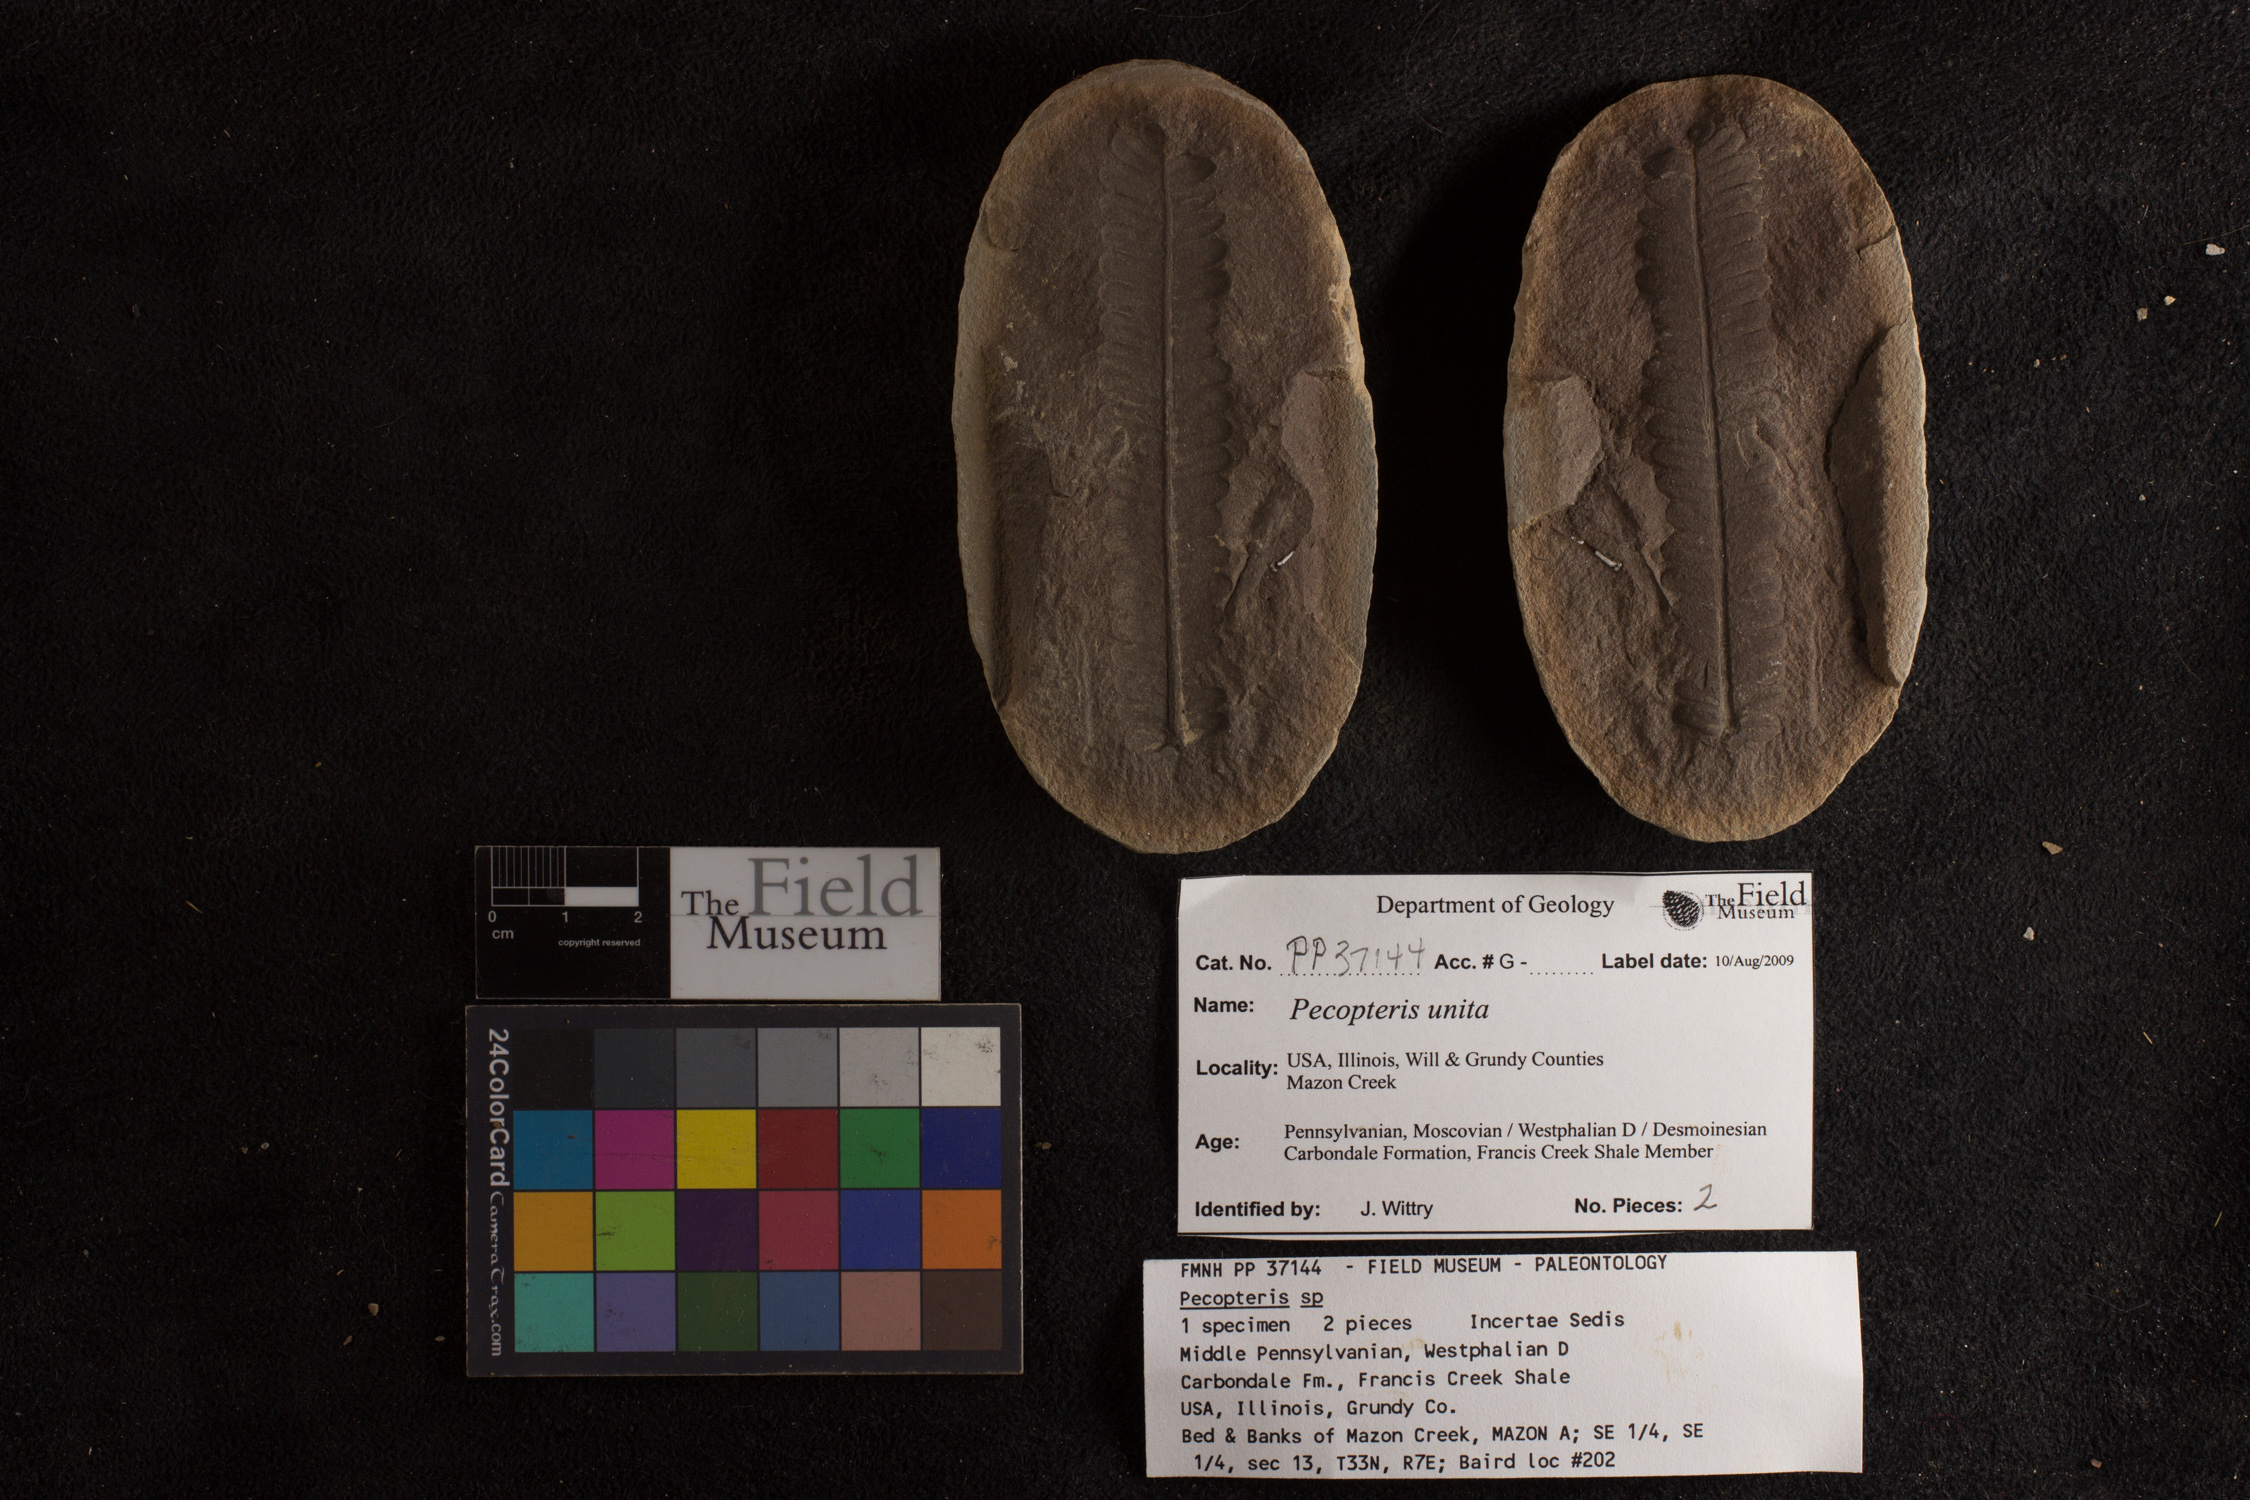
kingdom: Plantae
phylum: Tracheophyta
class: Polypodiopsida
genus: Diplazites
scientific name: Diplazites
